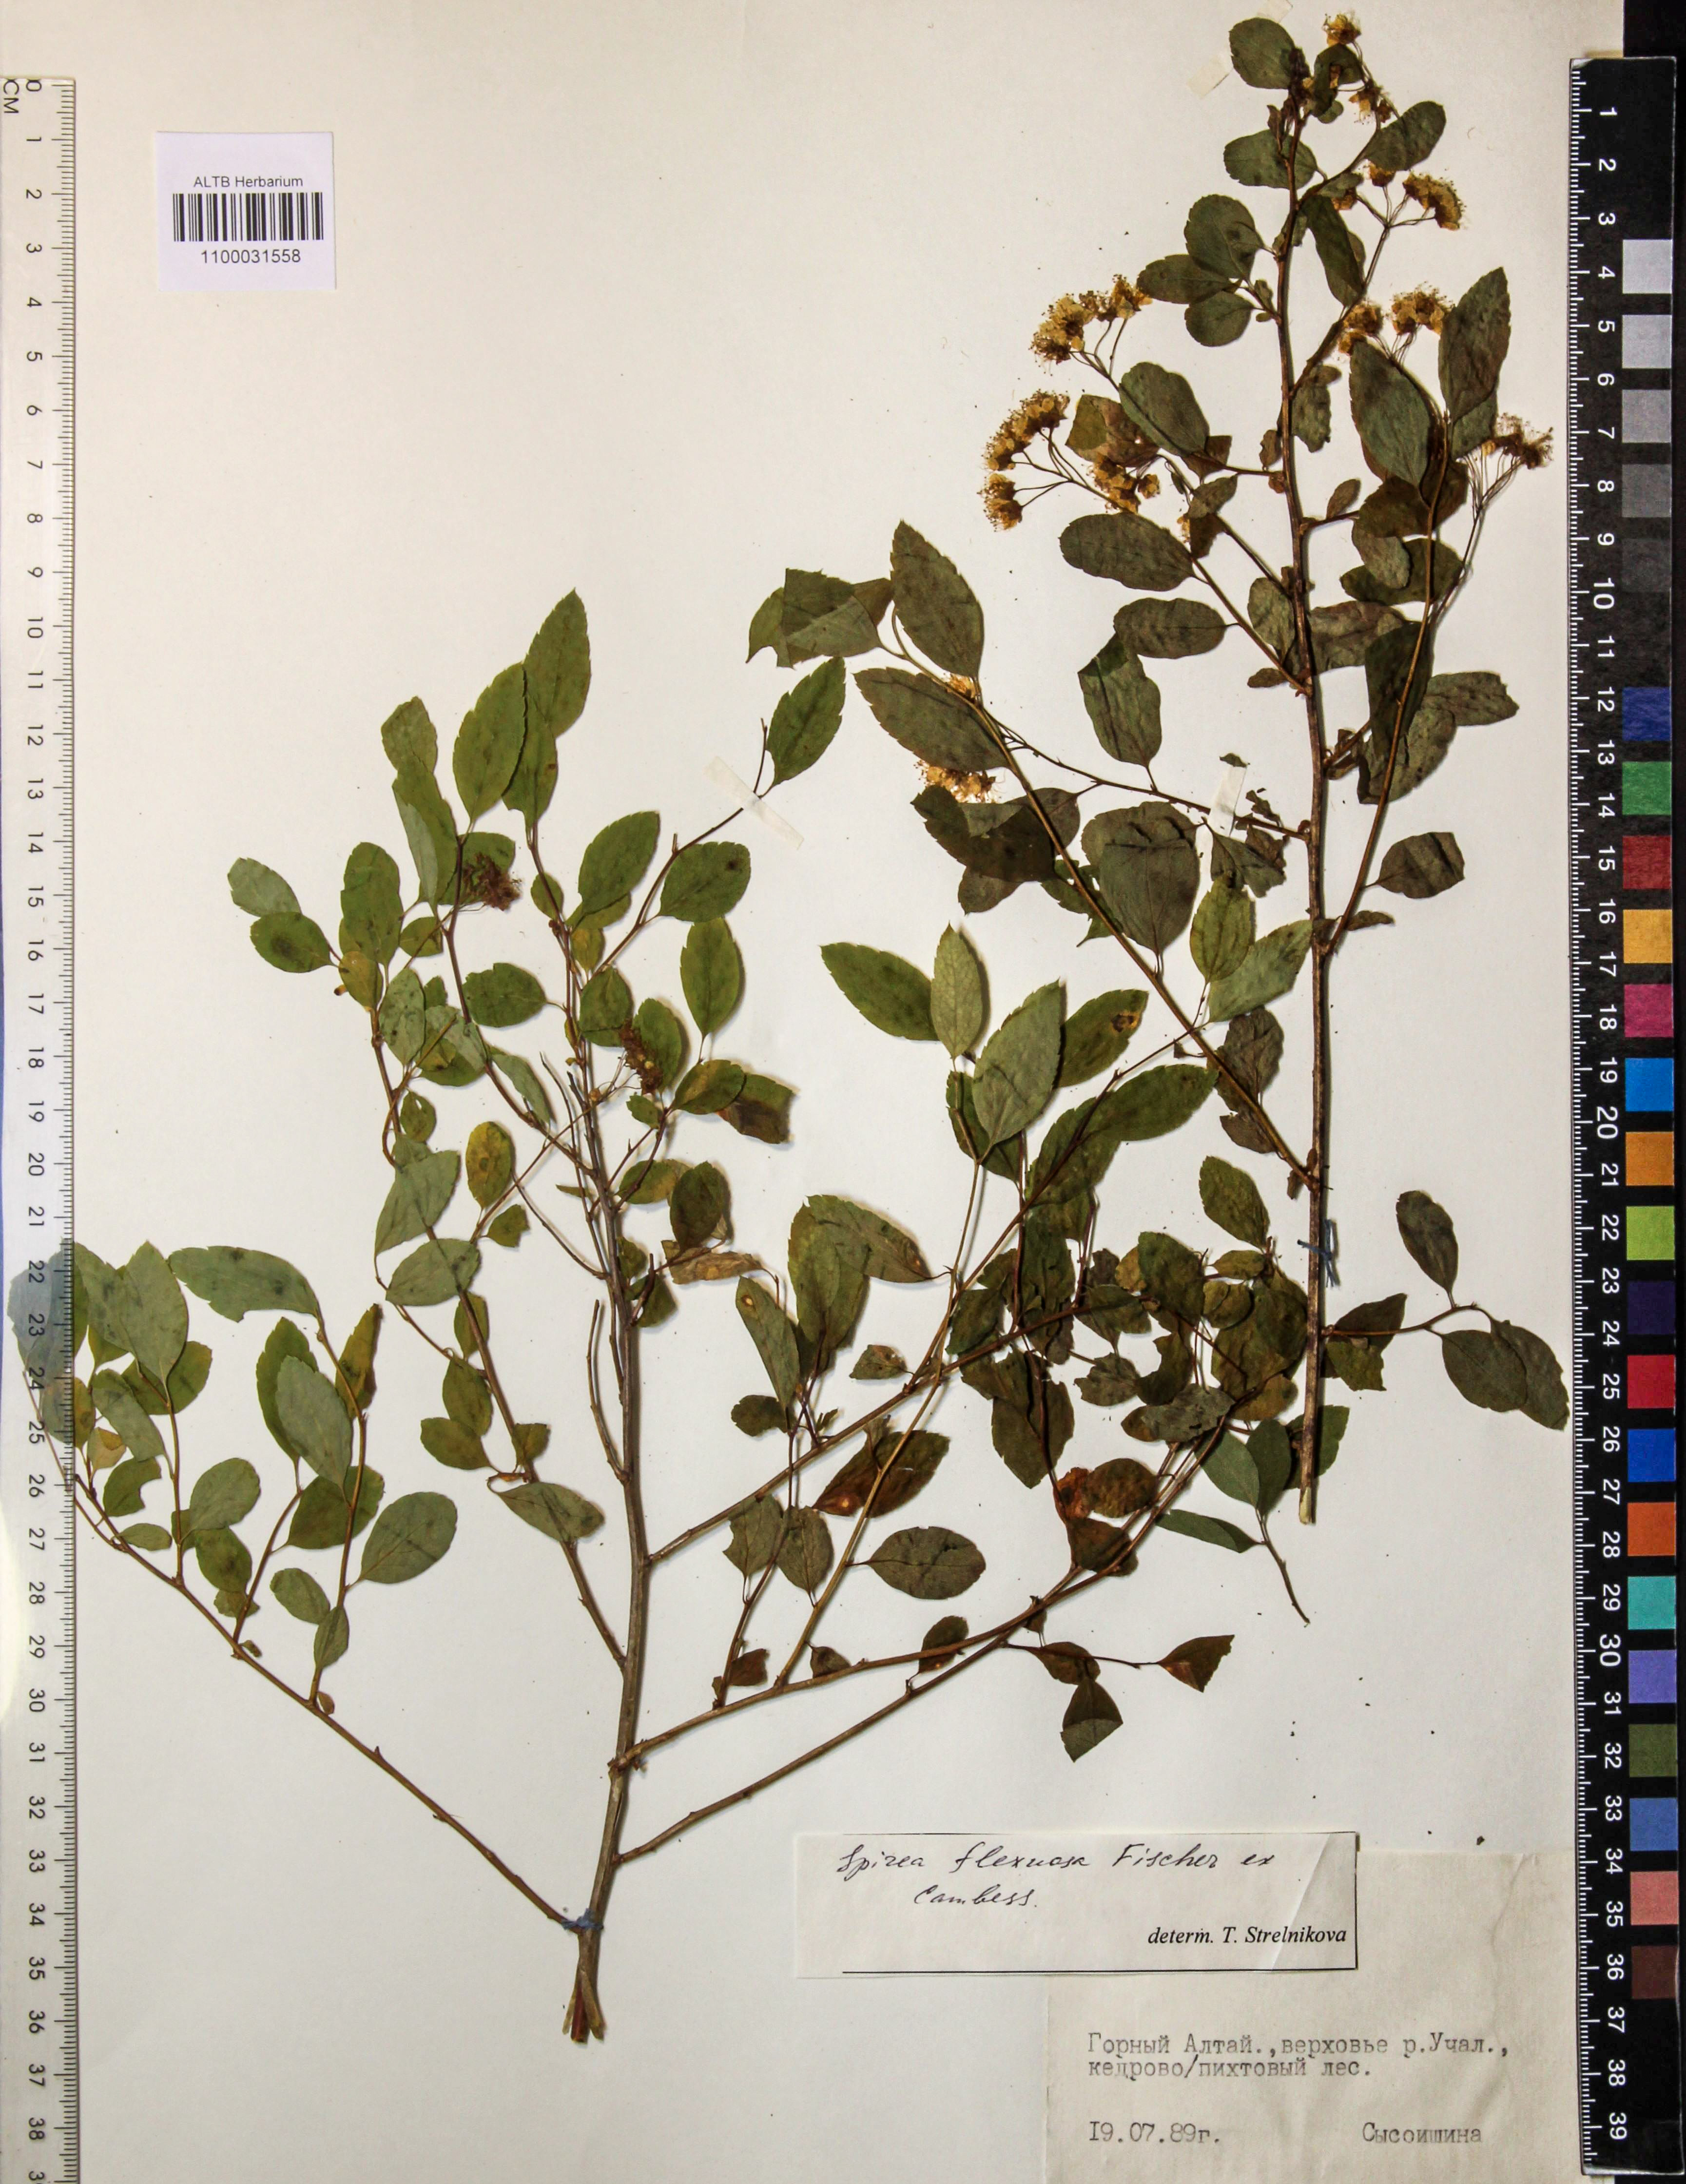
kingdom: Plantae
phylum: Tracheophyta
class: Magnoliopsida
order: Rosales
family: Rosaceae
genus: Spiraea
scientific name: Spiraea flexuosa
